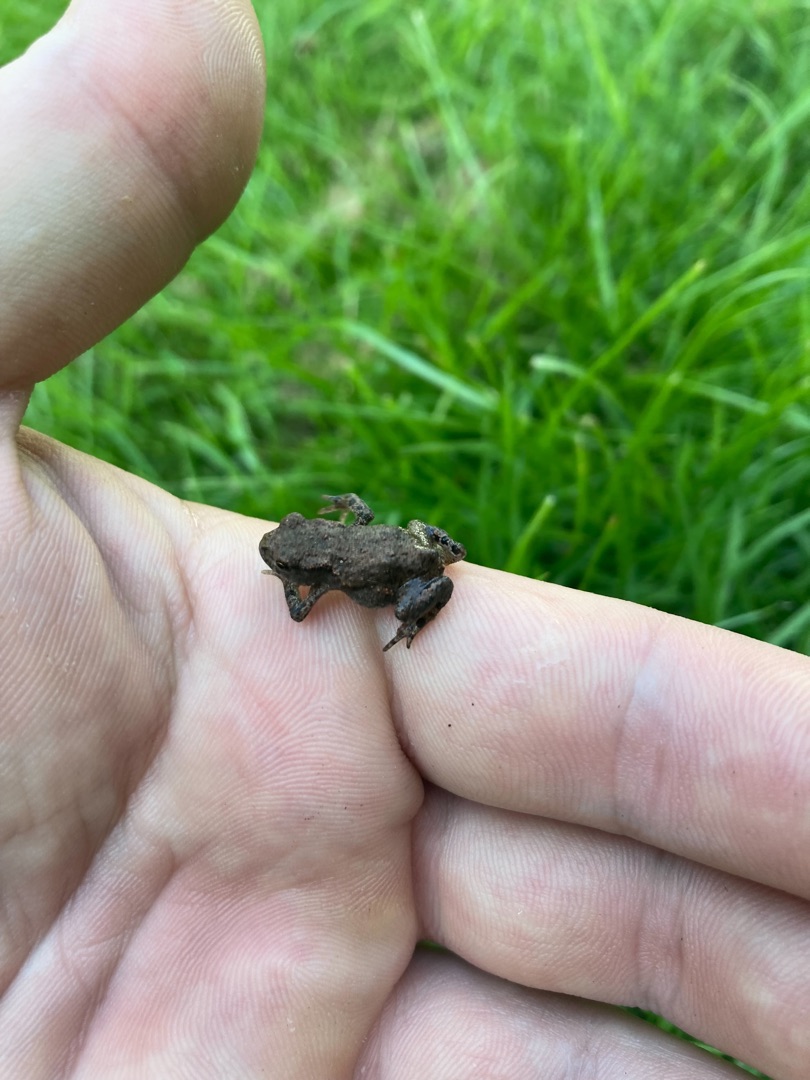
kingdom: Animalia
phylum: Chordata
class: Amphibia
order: Anura
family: Bufonidae
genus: Bufo
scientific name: Bufo bufo
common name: Skrubtudse
